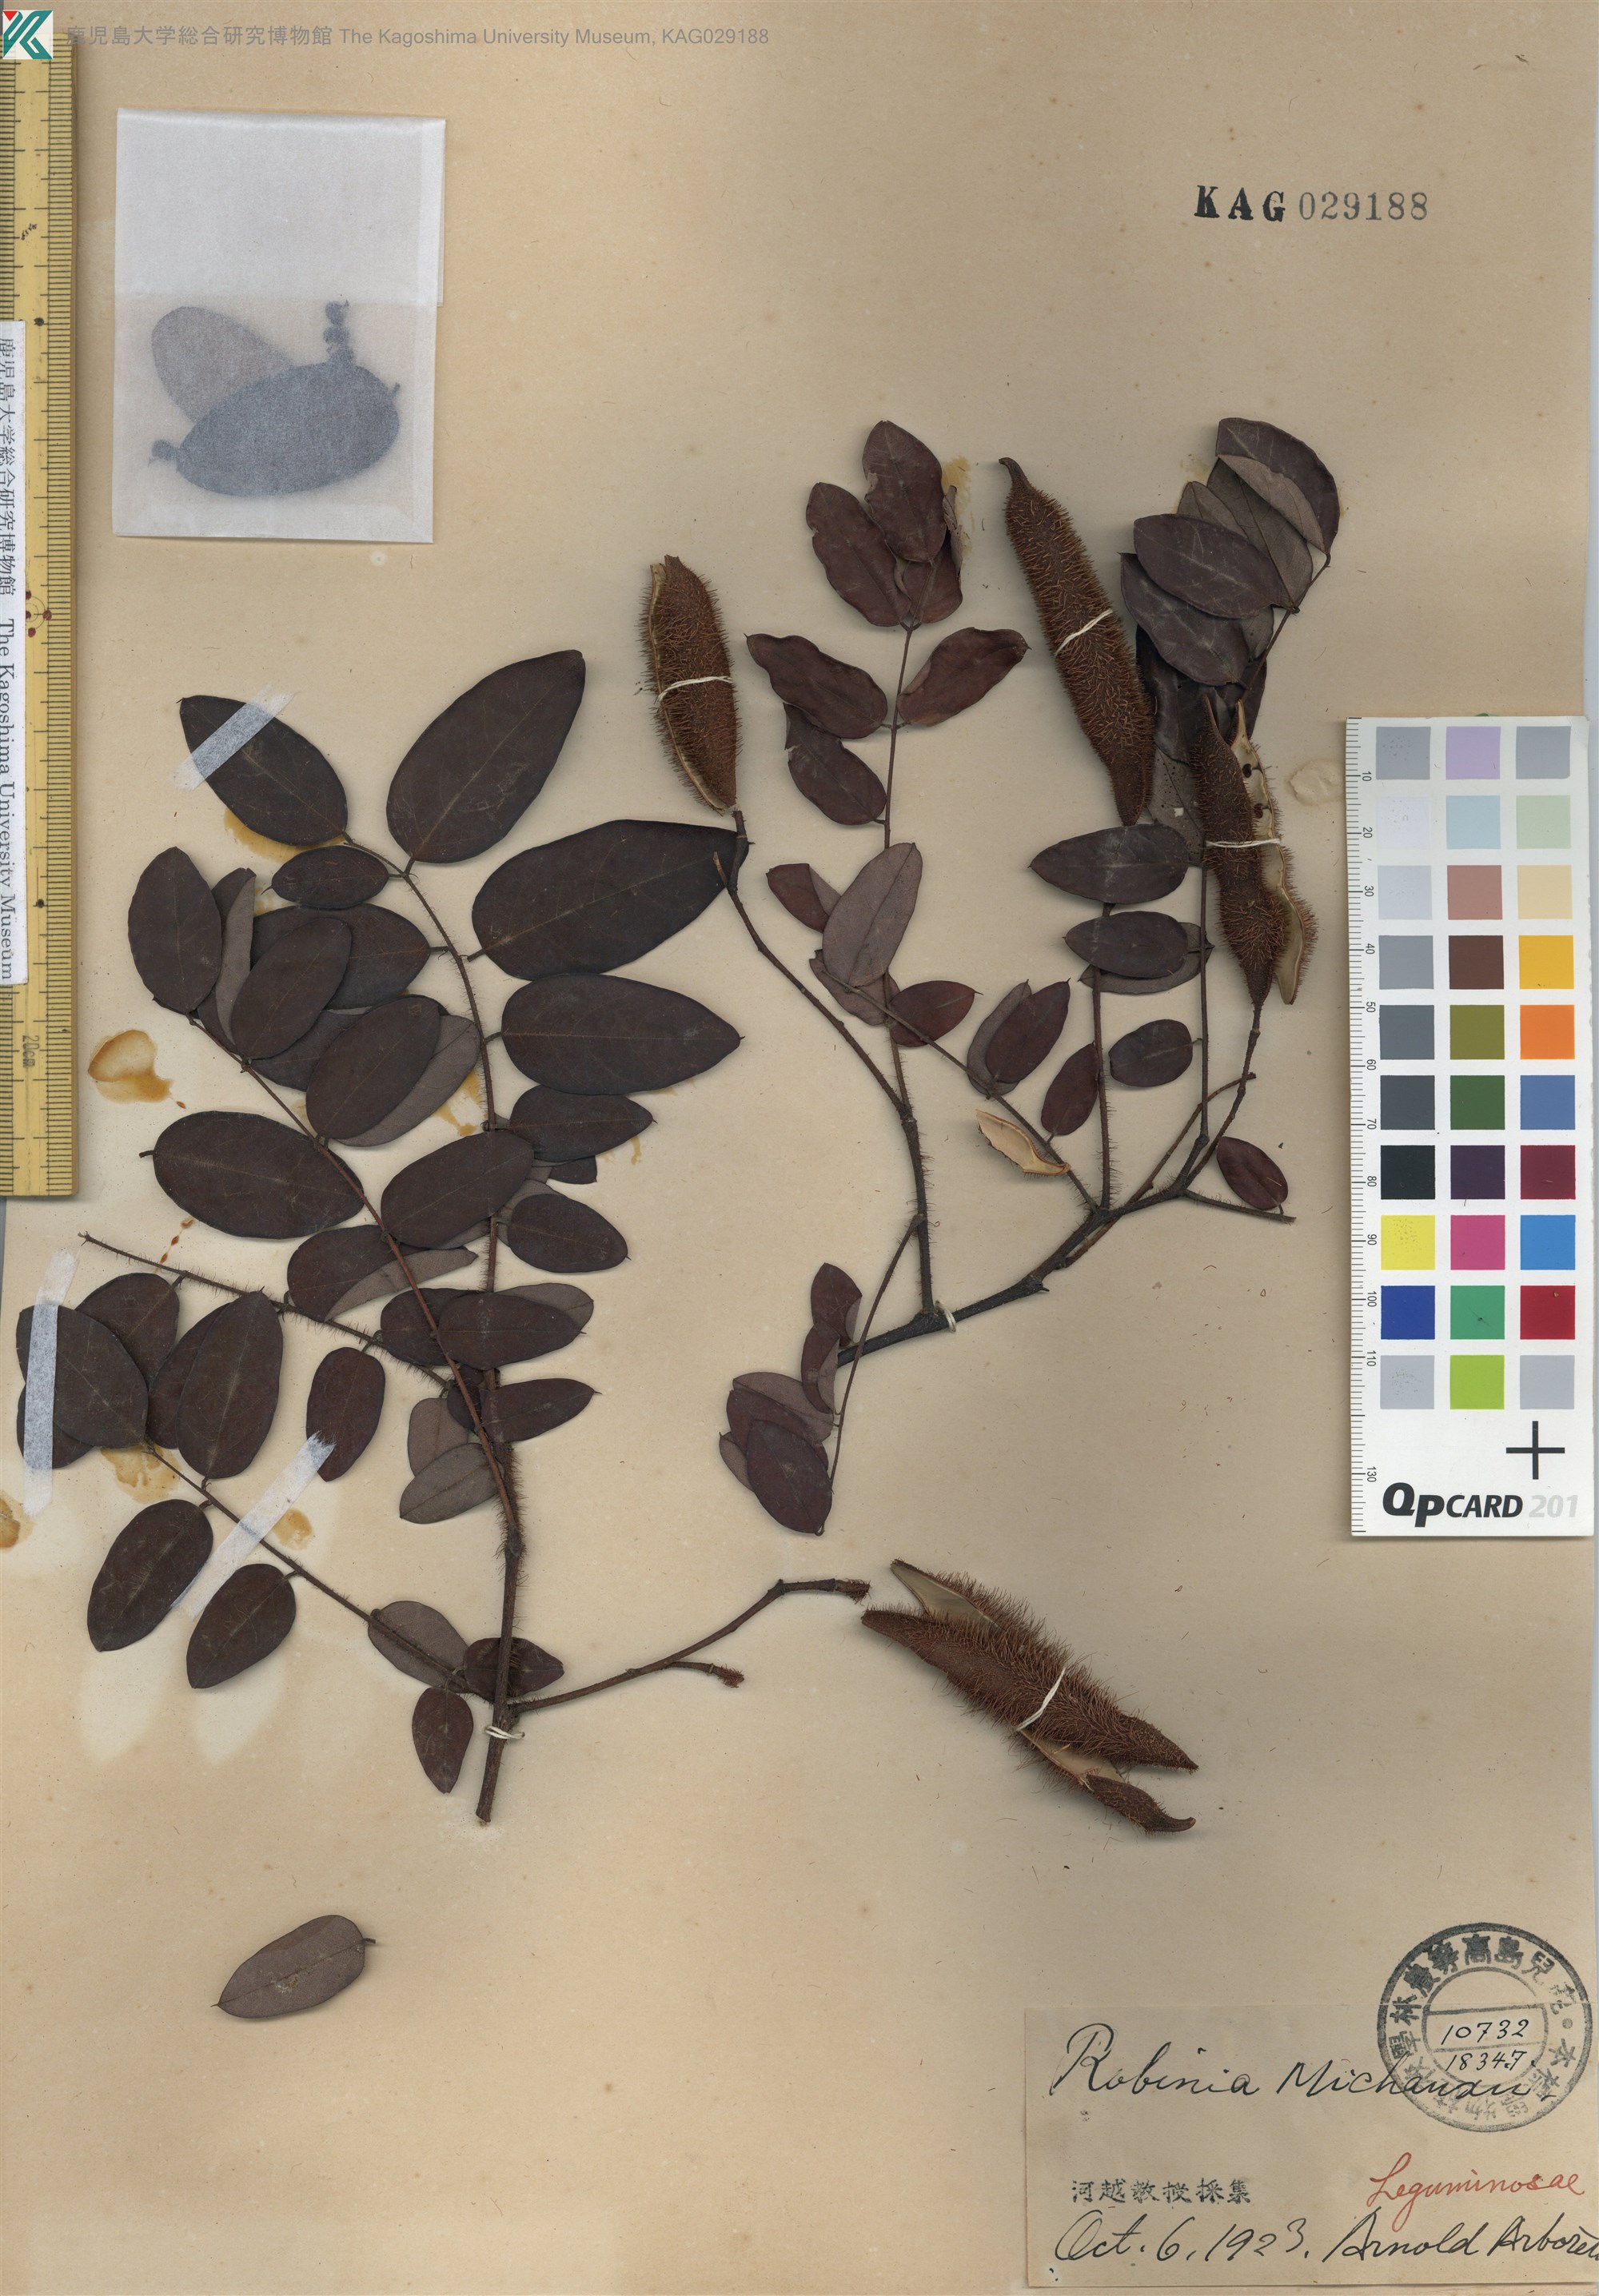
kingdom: Plantae
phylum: Tracheophyta
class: Magnoliopsida
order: Fabales
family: Fabaceae
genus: Robinia
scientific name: Robinia hispida
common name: Bristly locust
